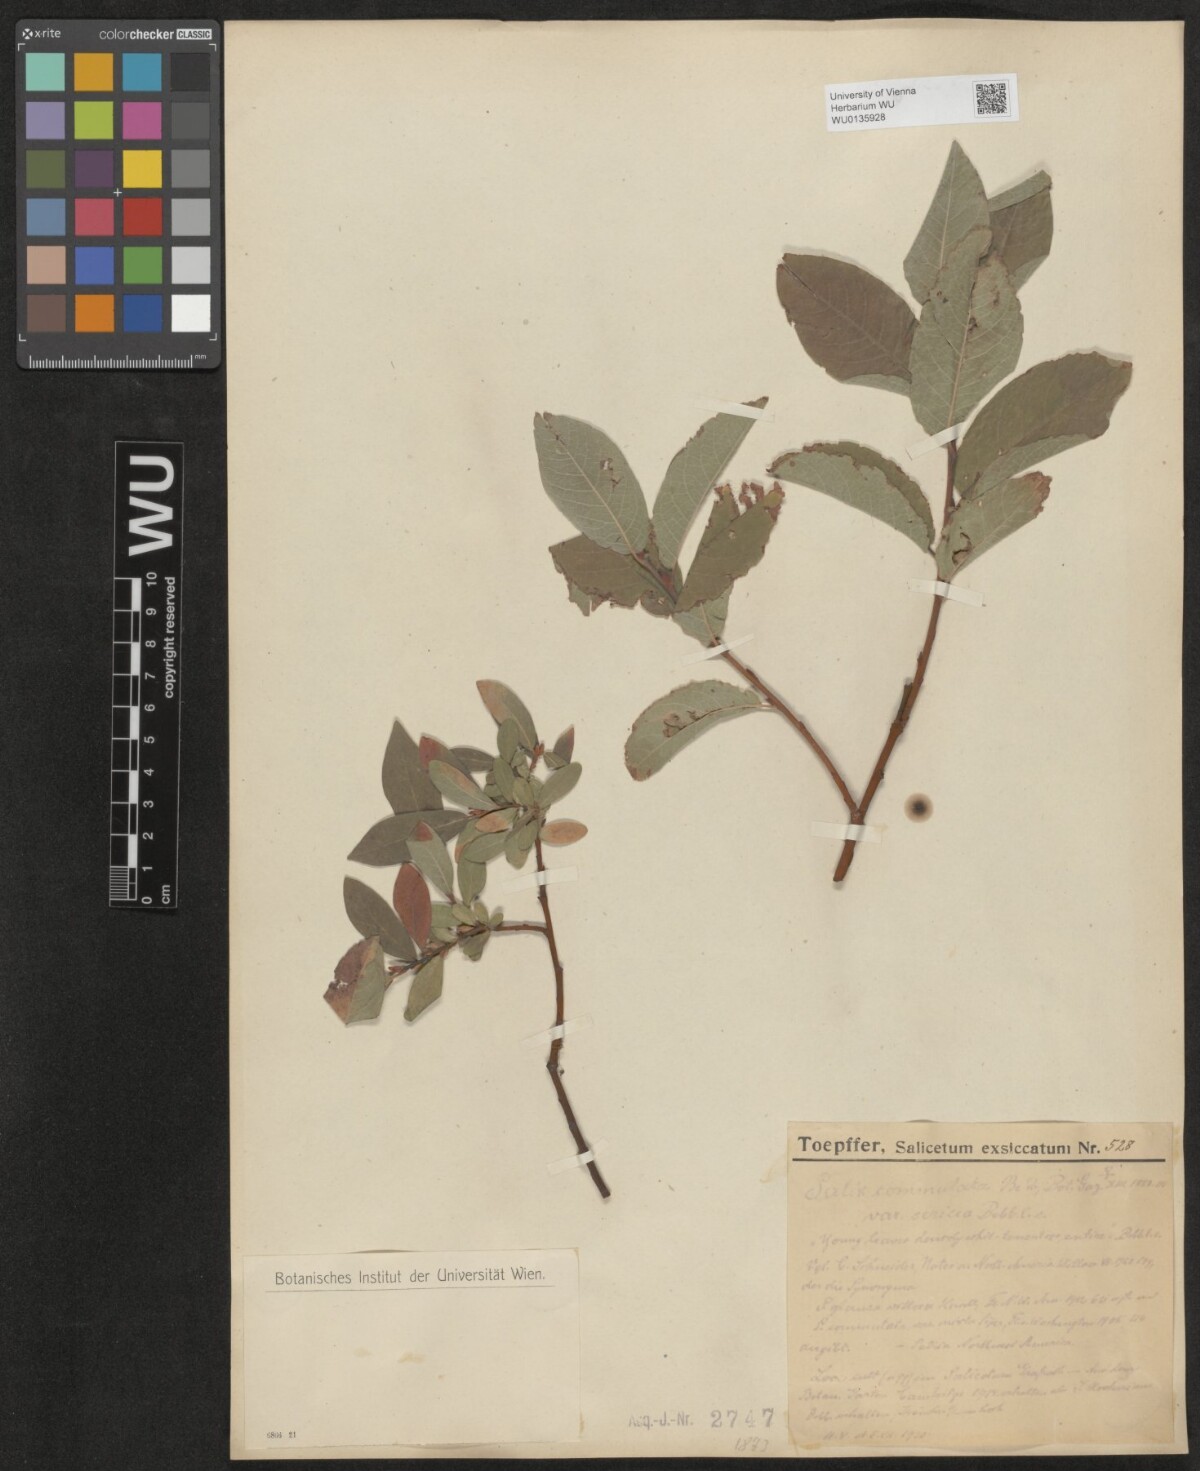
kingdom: Plantae
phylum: Tracheophyta
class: Magnoliopsida
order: Malpighiales
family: Salicaceae
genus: Salix
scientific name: Salix commutata
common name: Under-green willow
